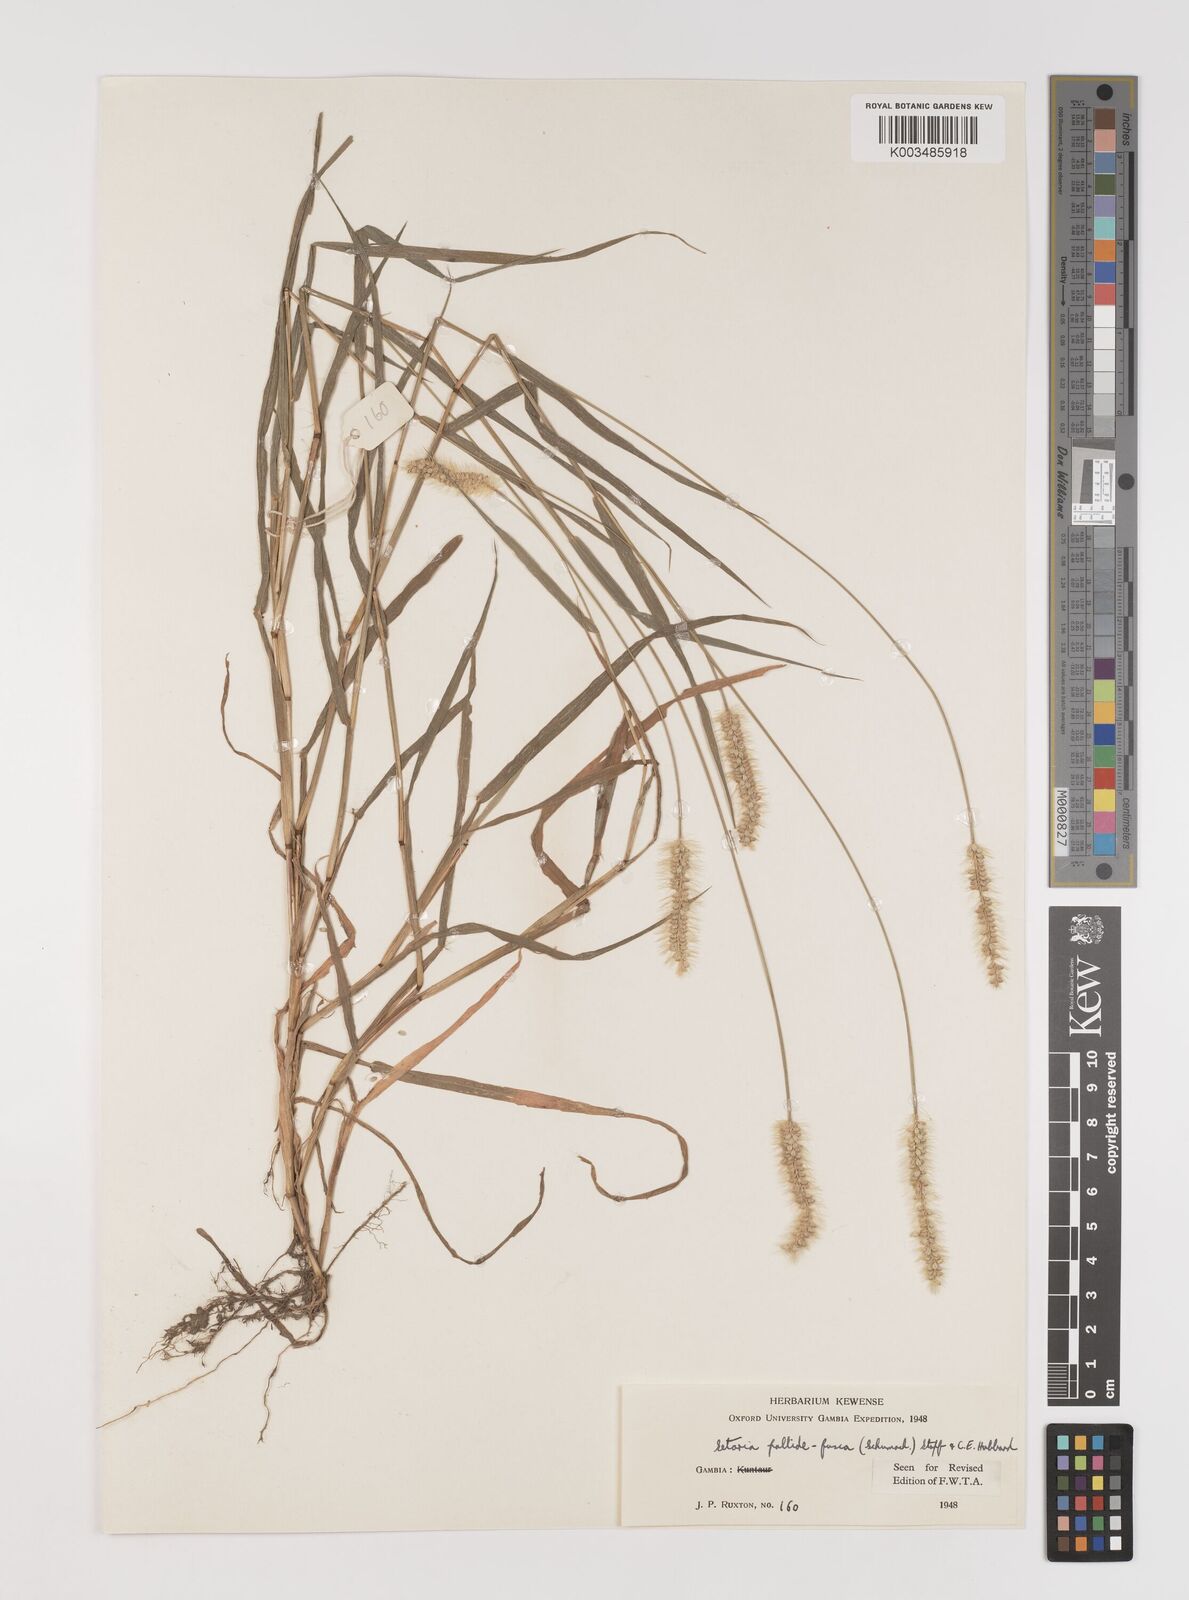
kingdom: Plantae
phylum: Tracheophyta
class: Liliopsida
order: Poales
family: Poaceae
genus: Setaria
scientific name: Setaria pumila
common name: Yellow bristle-grass
